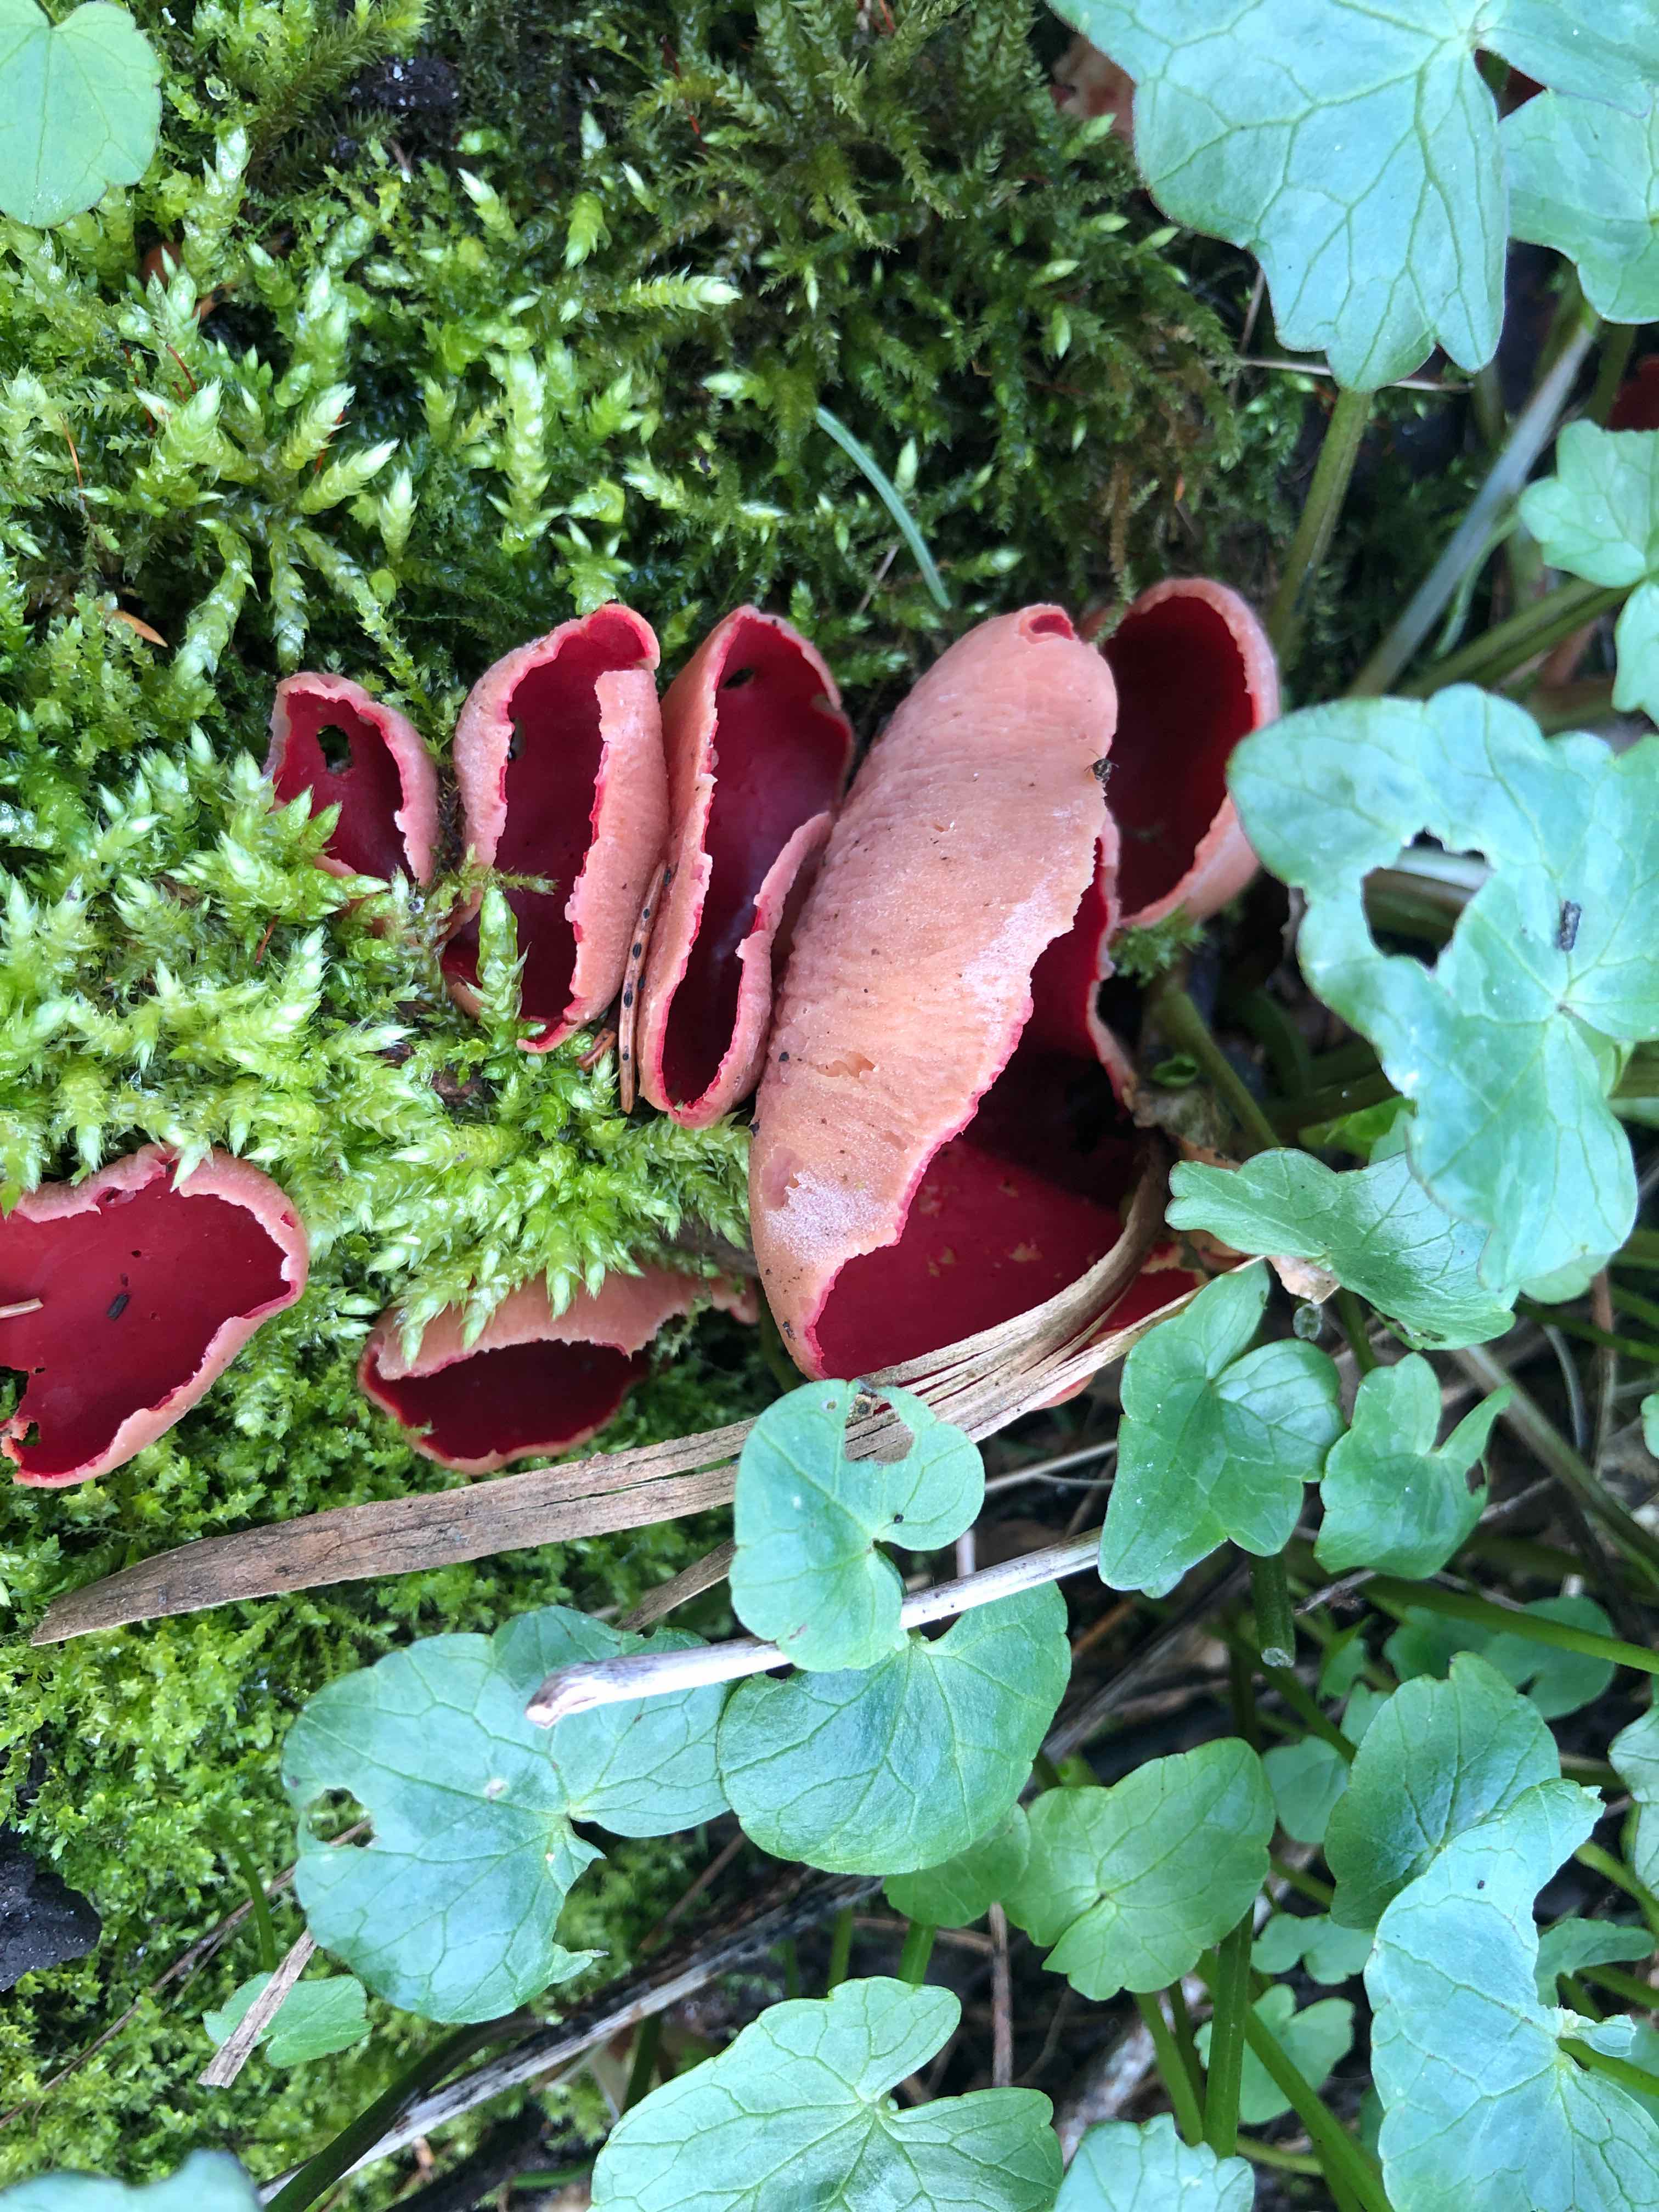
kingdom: Fungi
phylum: Ascomycota
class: Pezizomycetes
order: Pezizales
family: Sarcoscyphaceae
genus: Sarcoscypha
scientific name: Sarcoscypha austriaca
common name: krølhåret pragtbæger
